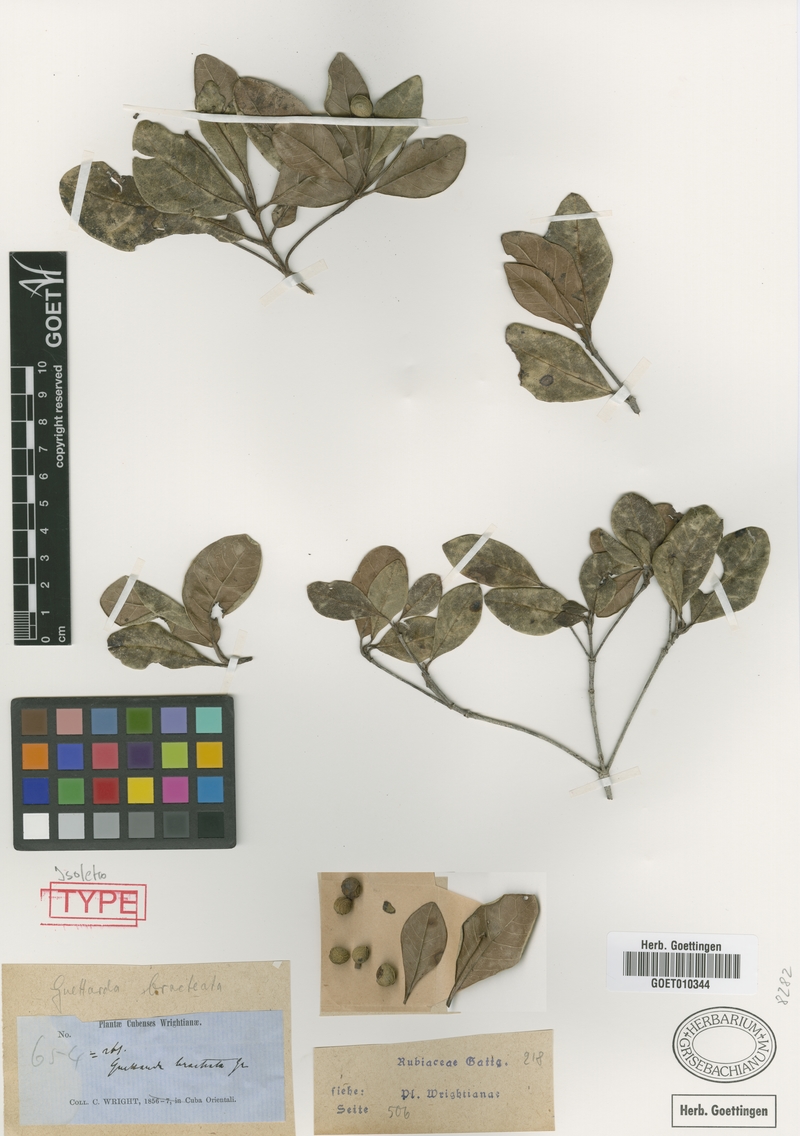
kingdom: Plantae
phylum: Tracheophyta
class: Magnoliopsida
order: Gentianales
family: Rubiaceae
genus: Guettarda
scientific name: Guettarda valenzuelana
